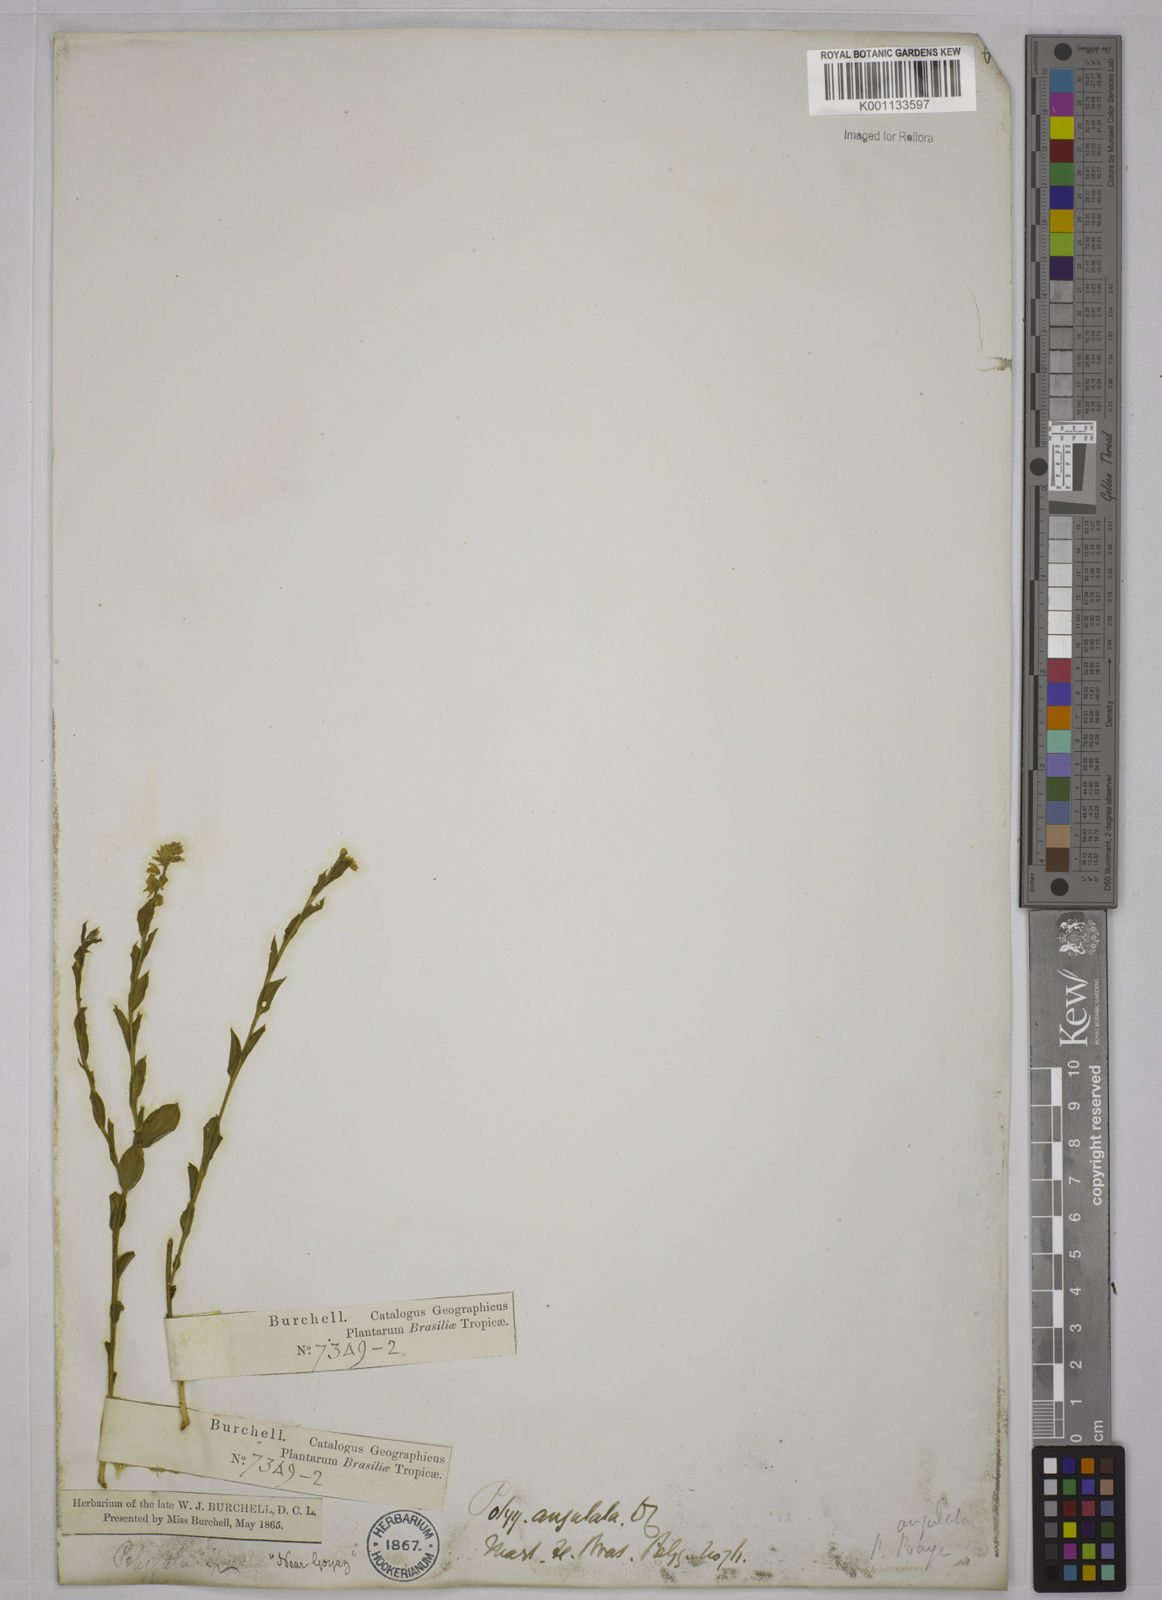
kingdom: Plantae
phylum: Tracheophyta
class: Magnoliopsida
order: Fabales
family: Polygalaceae
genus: Polygala
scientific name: Polygala poaya
